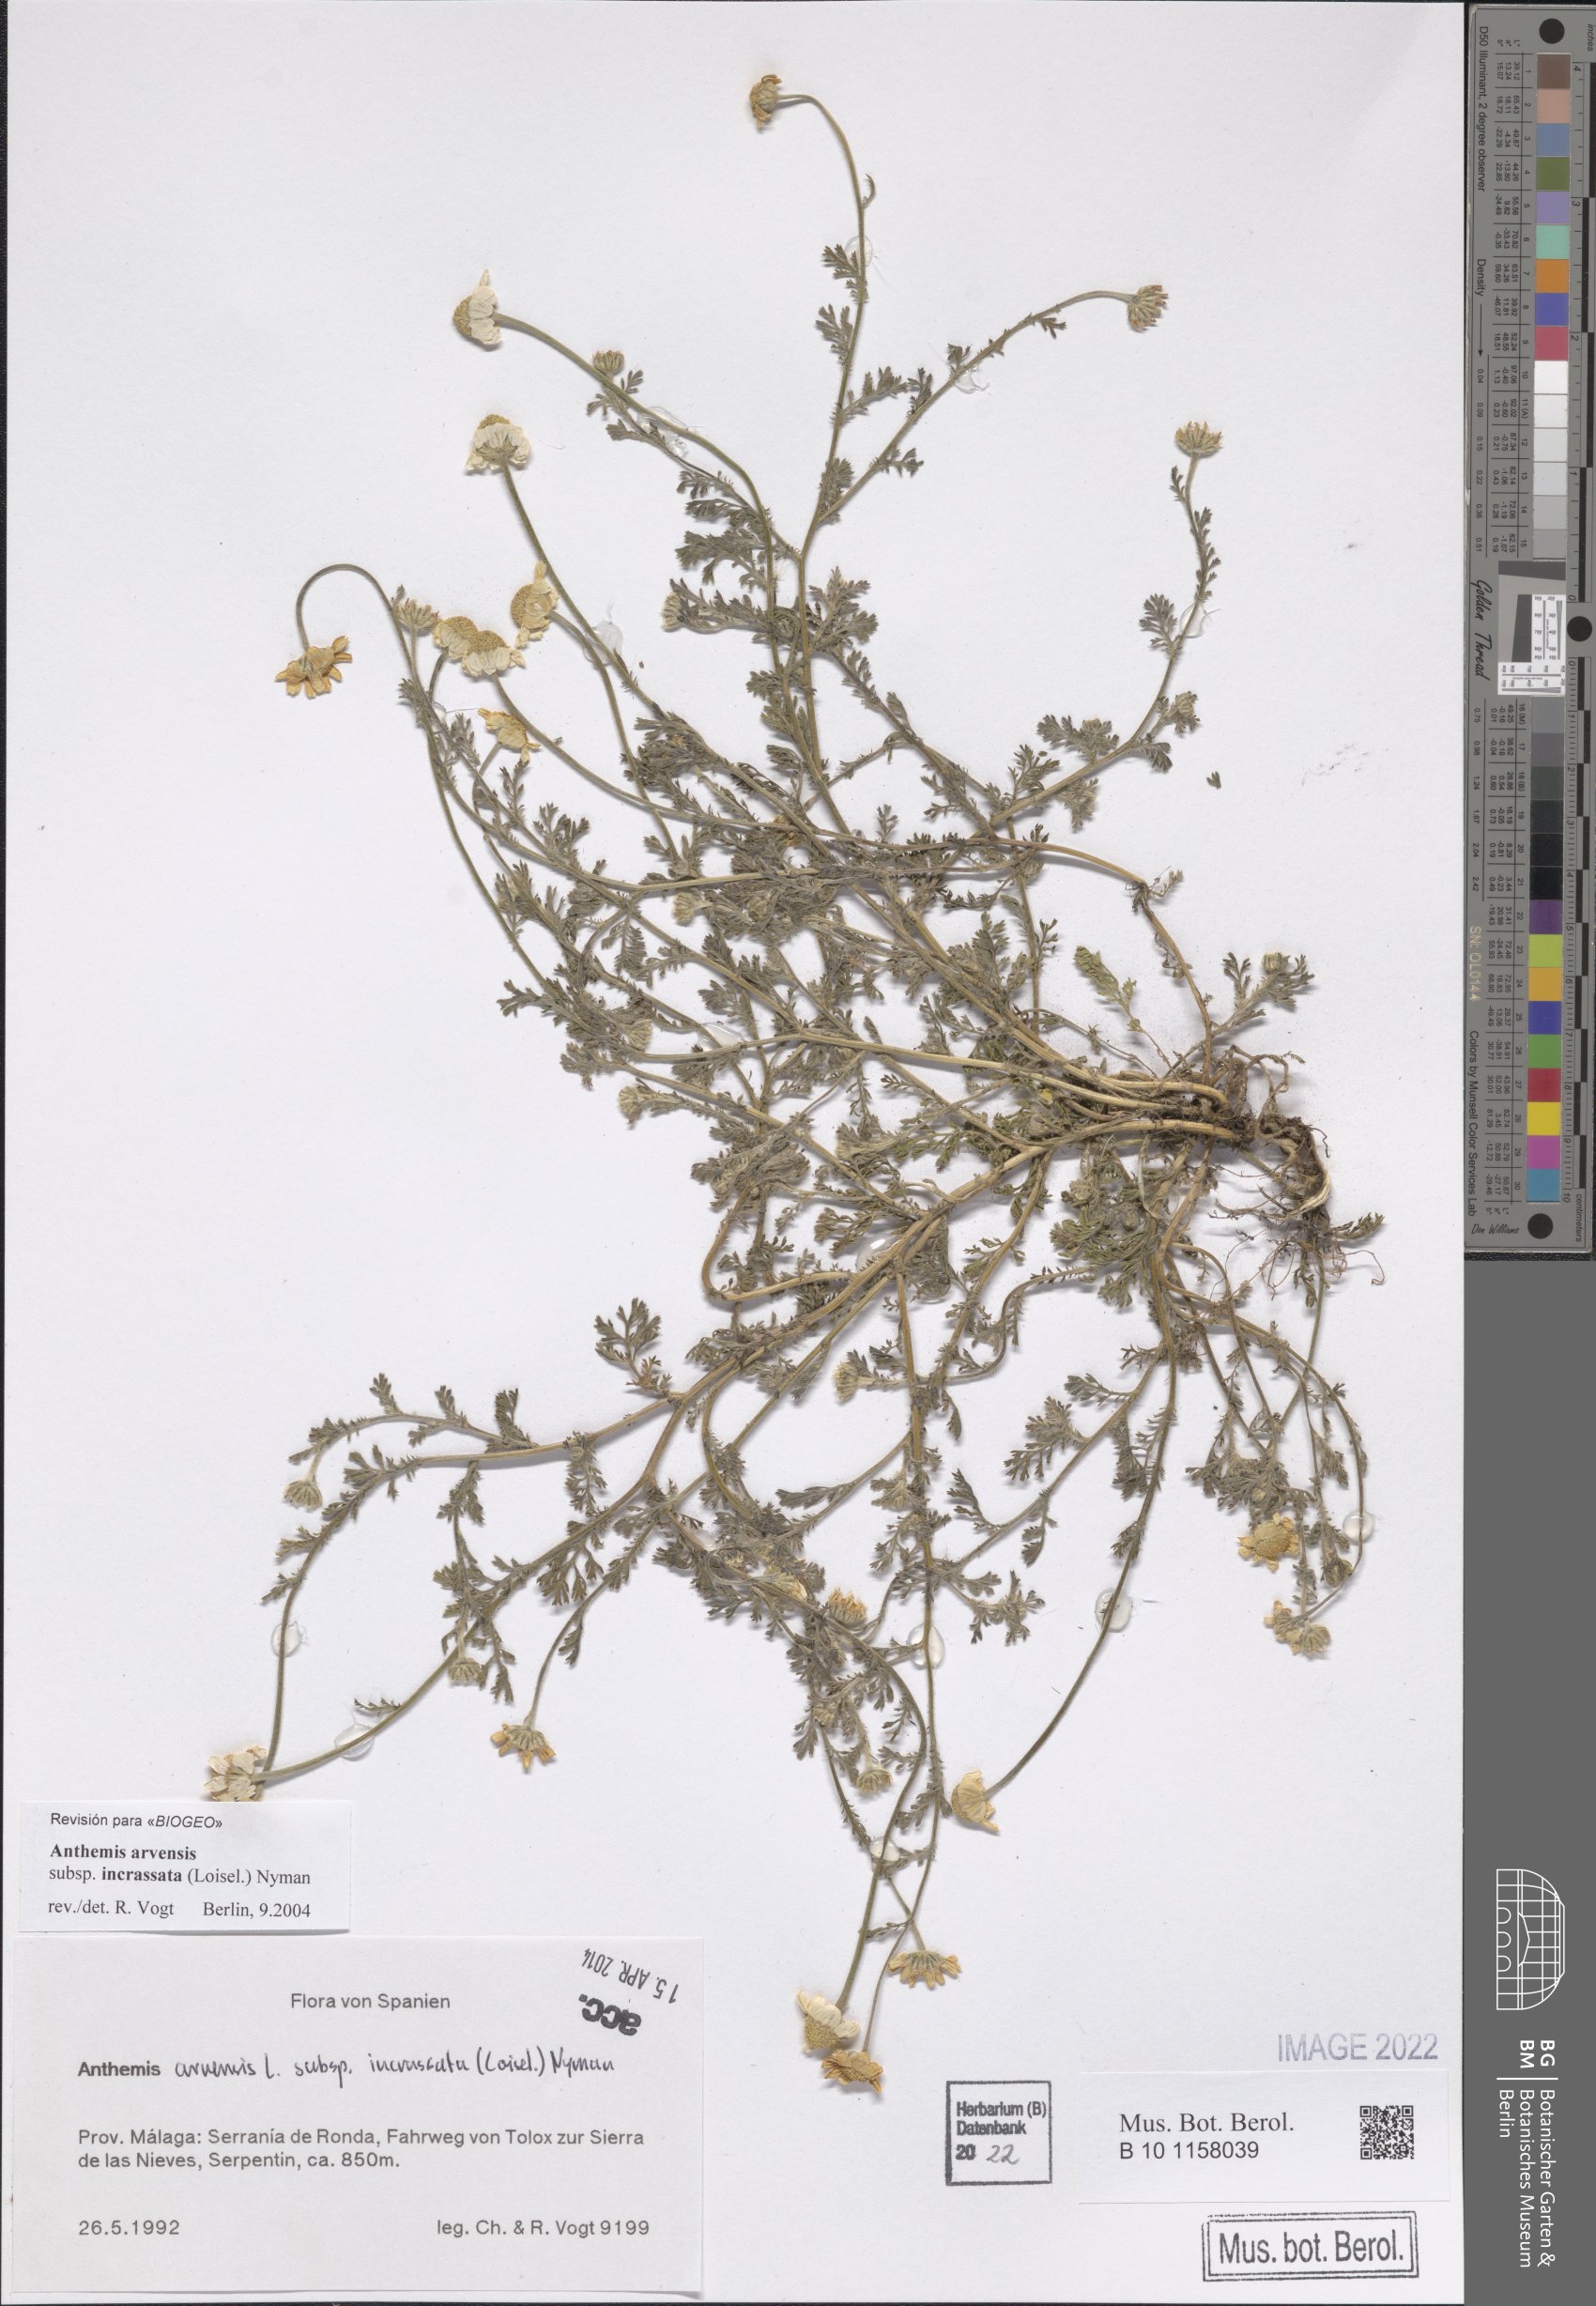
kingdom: Plantae
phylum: Tracheophyta
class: Magnoliopsida
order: Asterales
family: Asteraceae
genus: Anthemis
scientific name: Anthemis arvensis
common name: Corn chamomile
